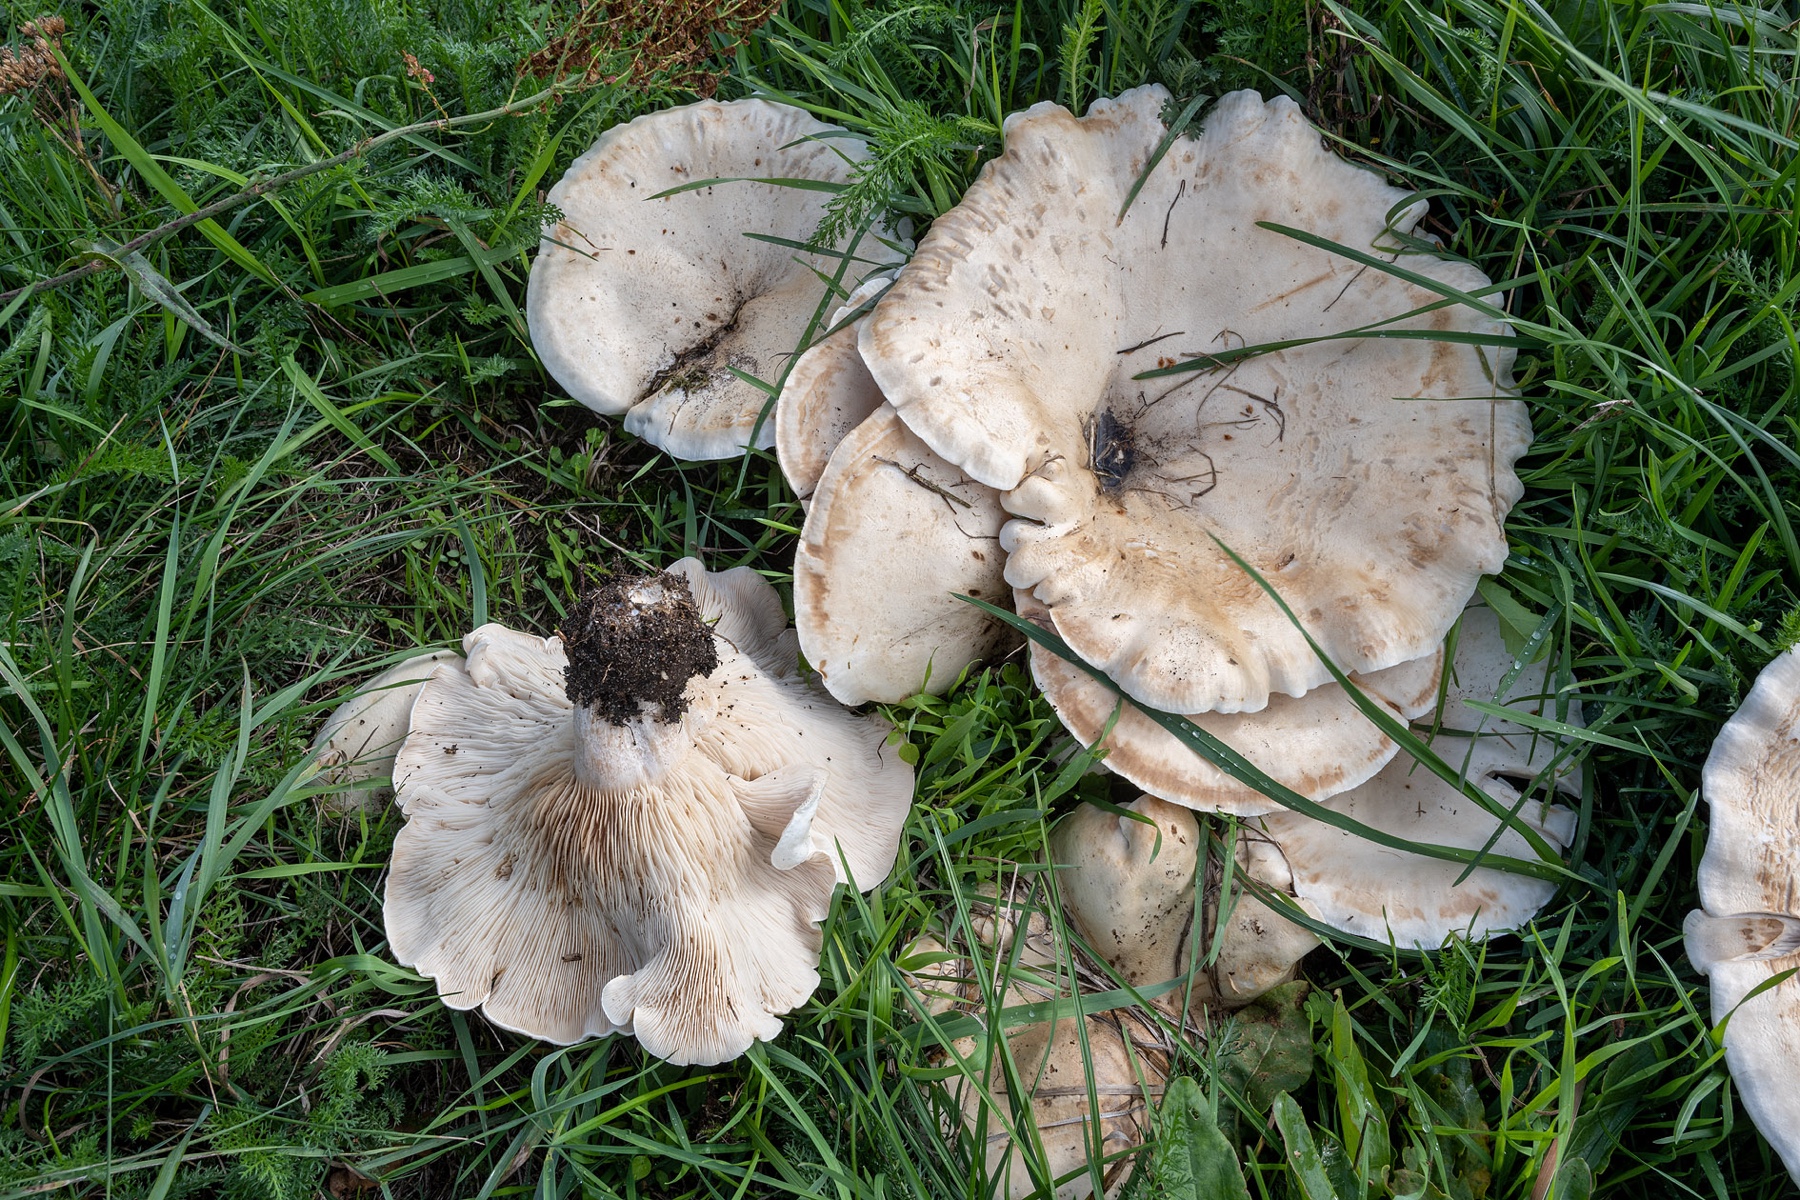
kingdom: Fungi
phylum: Basidiomycota
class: Agaricomycetes
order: Agaricales
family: Tricholomataceae
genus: Aspropaxillus
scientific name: Aspropaxillus giganteus
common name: kæmpe-tragtridderhat
